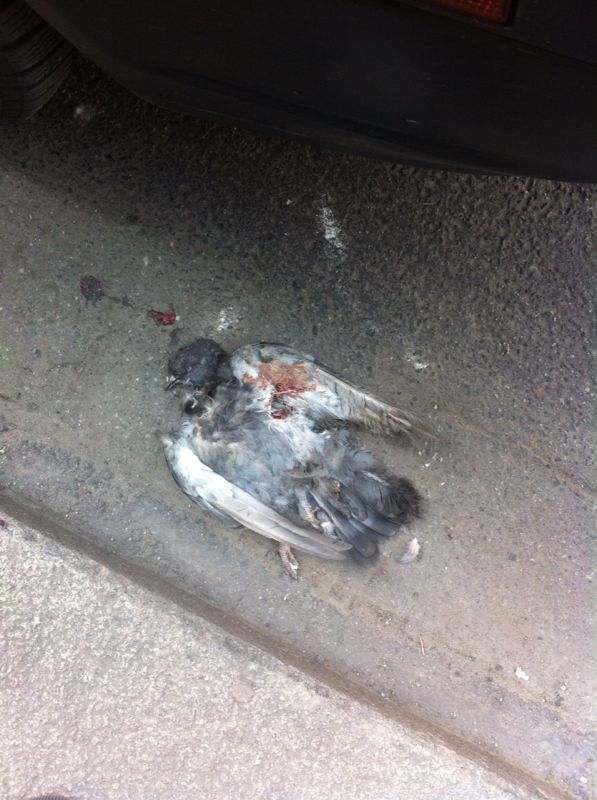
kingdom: Animalia
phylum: Chordata
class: Aves
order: Columbiformes
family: Columbidae
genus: Columba
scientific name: Columba livia
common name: Rock pigeon
